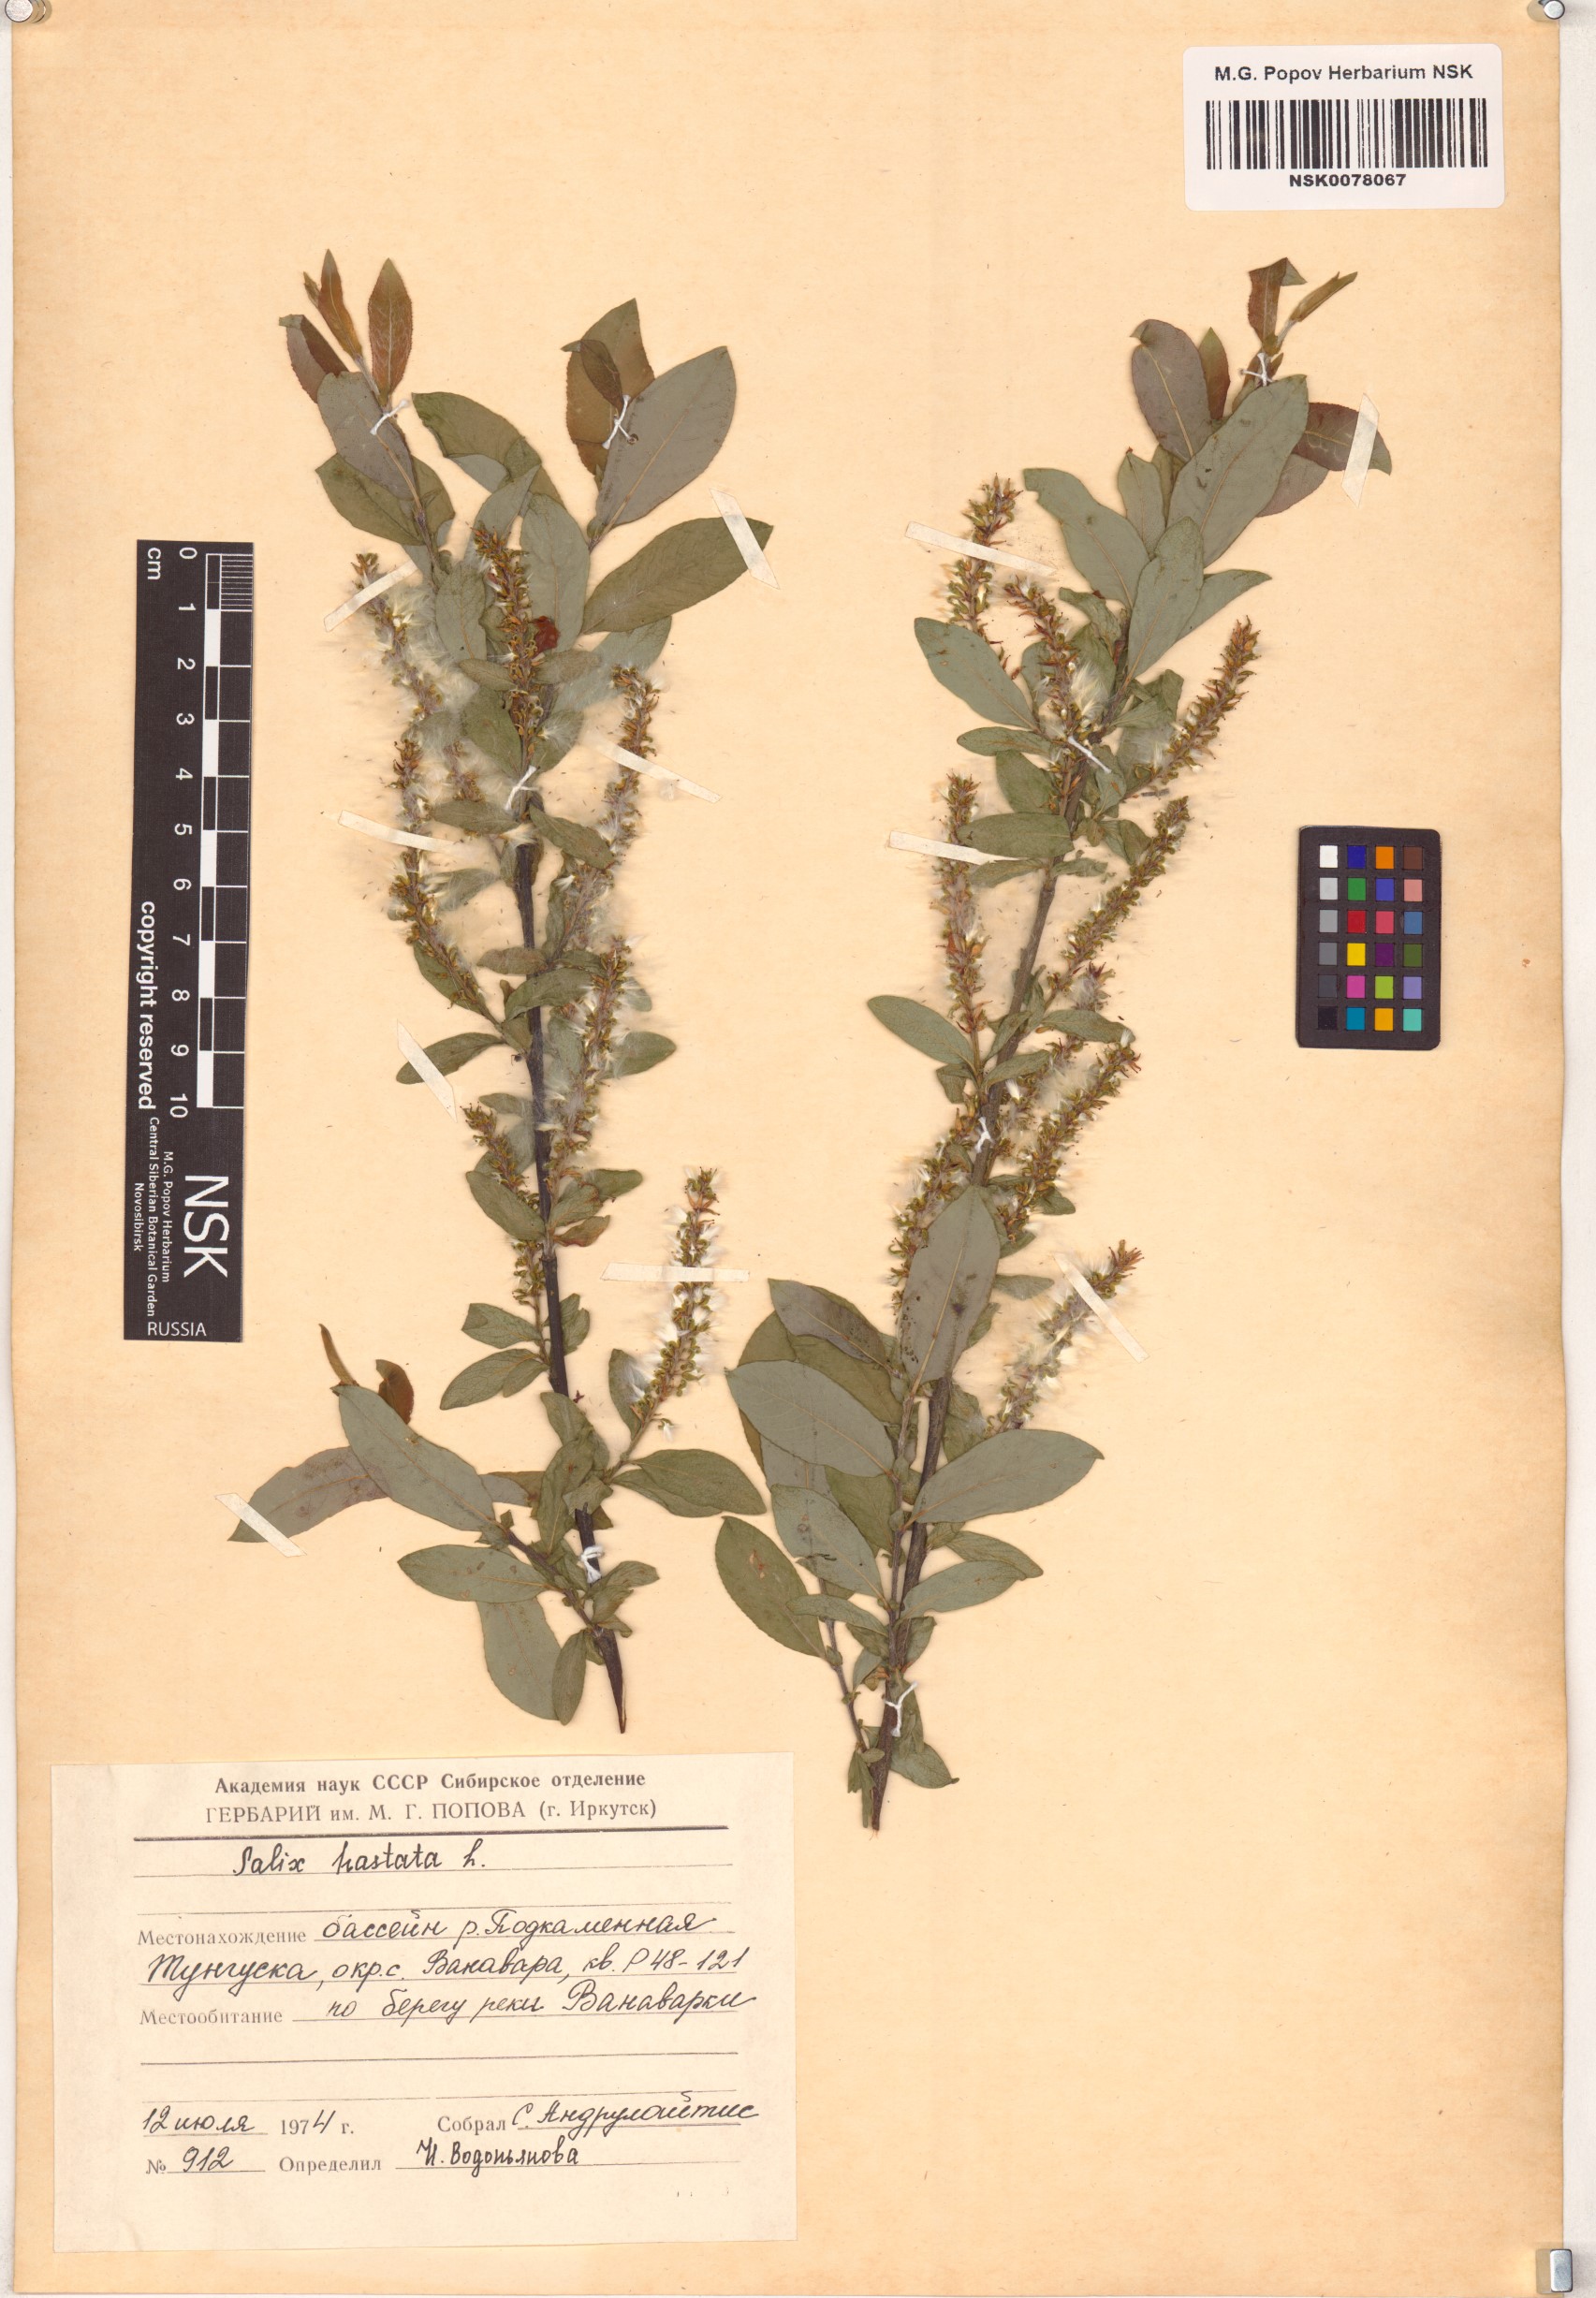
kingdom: Plantae
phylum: Tracheophyta
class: Magnoliopsida
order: Malpighiales
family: Salicaceae
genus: Salix
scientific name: Salix hastata
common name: Halberd willow
